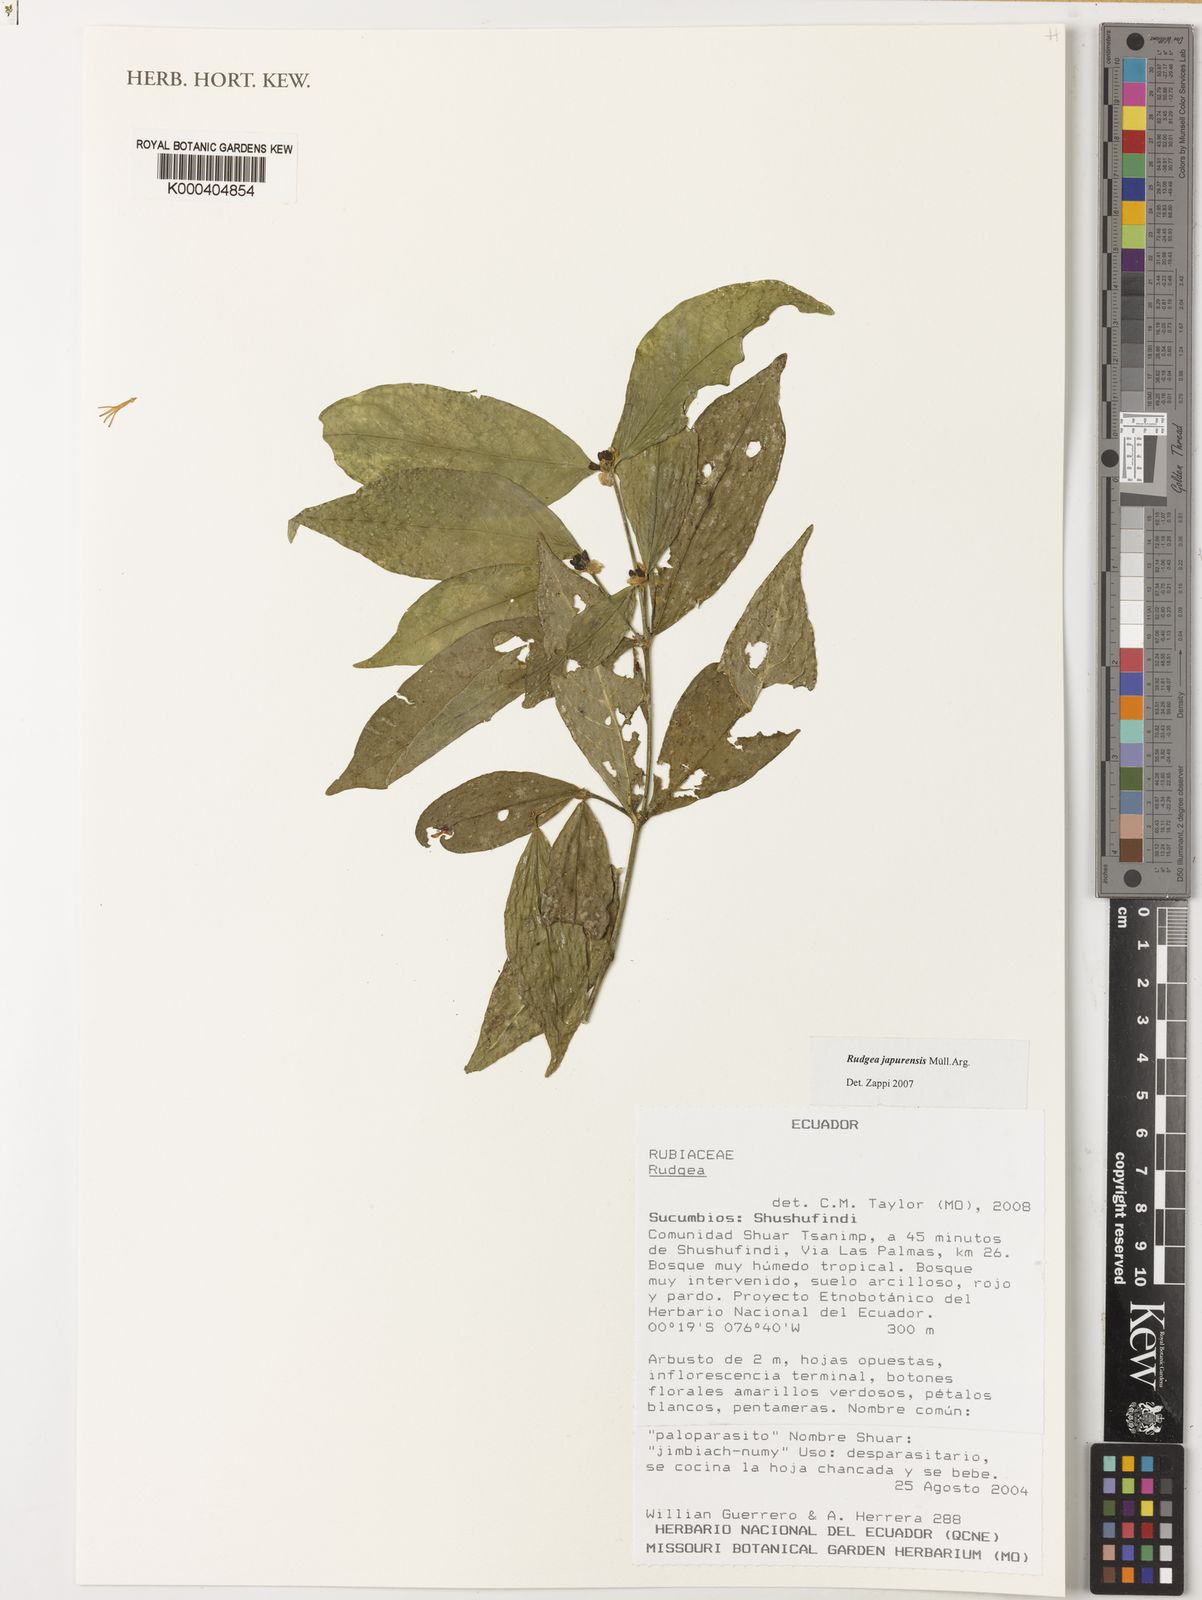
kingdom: Plantae
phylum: Tracheophyta
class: Magnoliopsida
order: Gentianales
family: Rubiaceae
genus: Rudgea
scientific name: Rudgea panurensis
